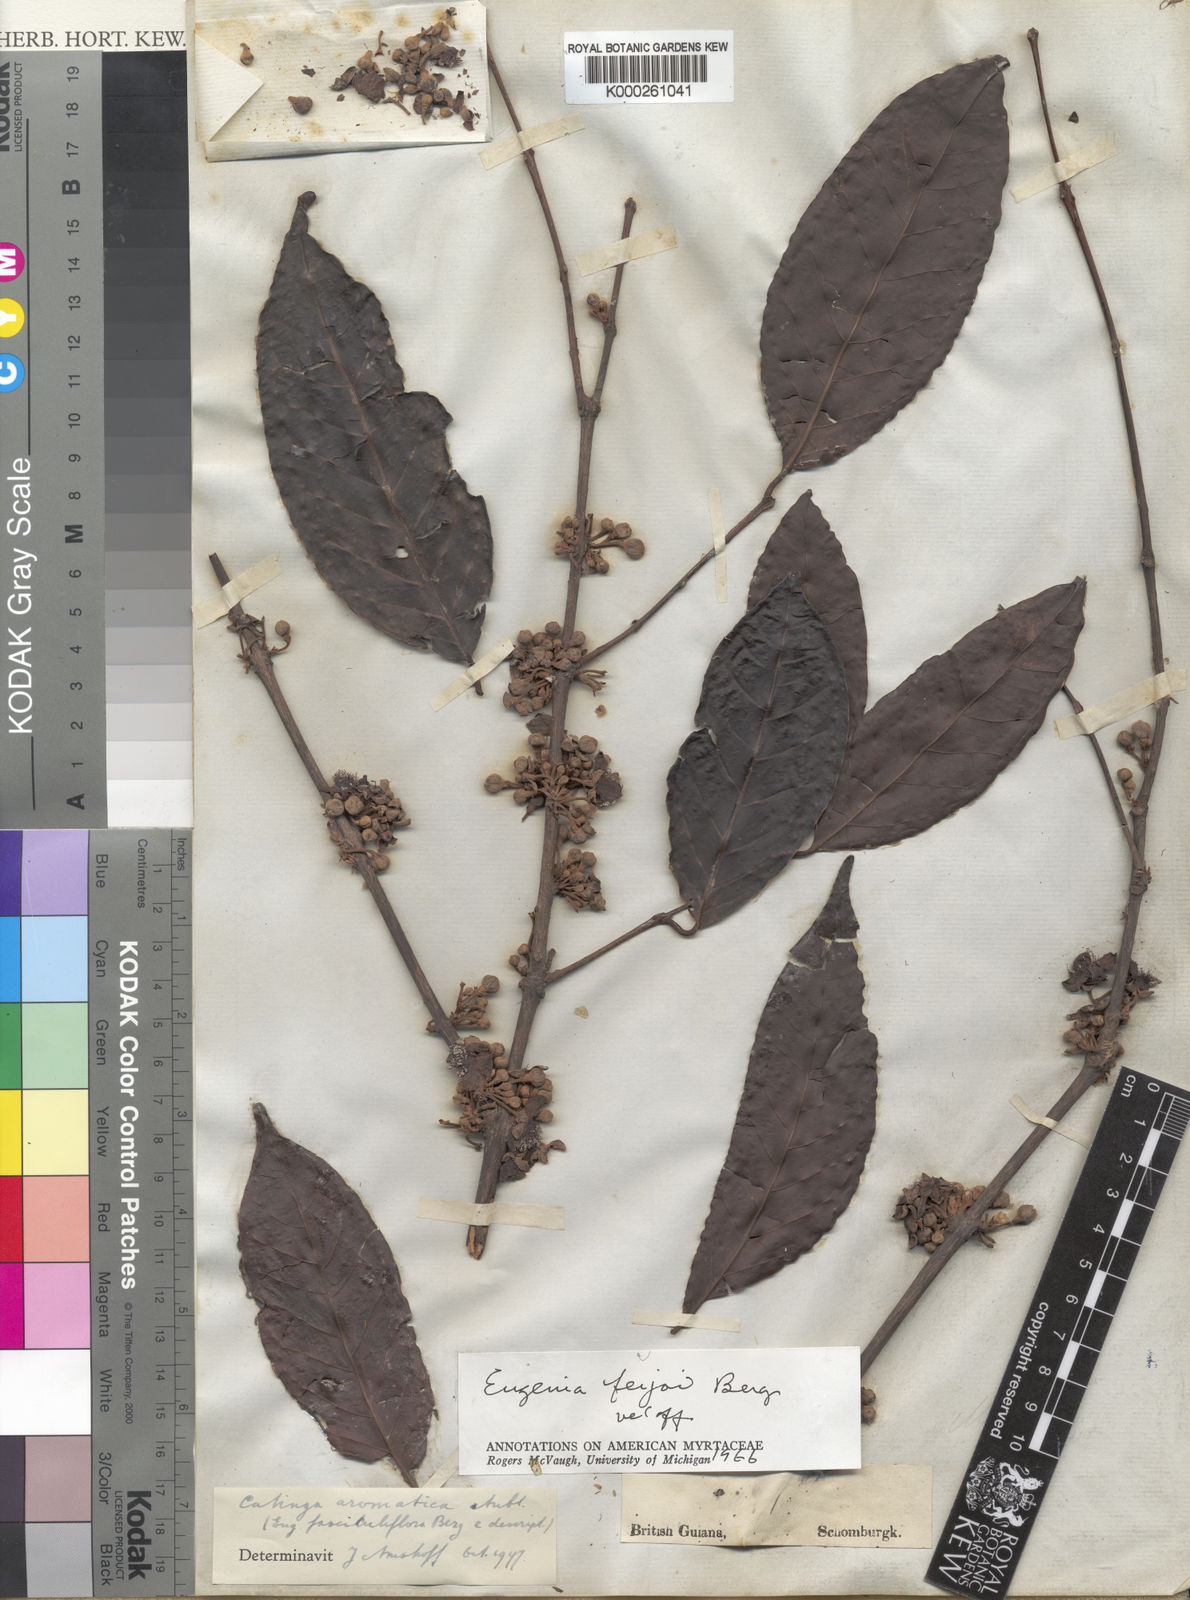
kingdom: Plantae
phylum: Tracheophyta
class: Magnoliopsida
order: Myrtales
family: Myrtaceae
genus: Eugenia
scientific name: Eugenia moschata
